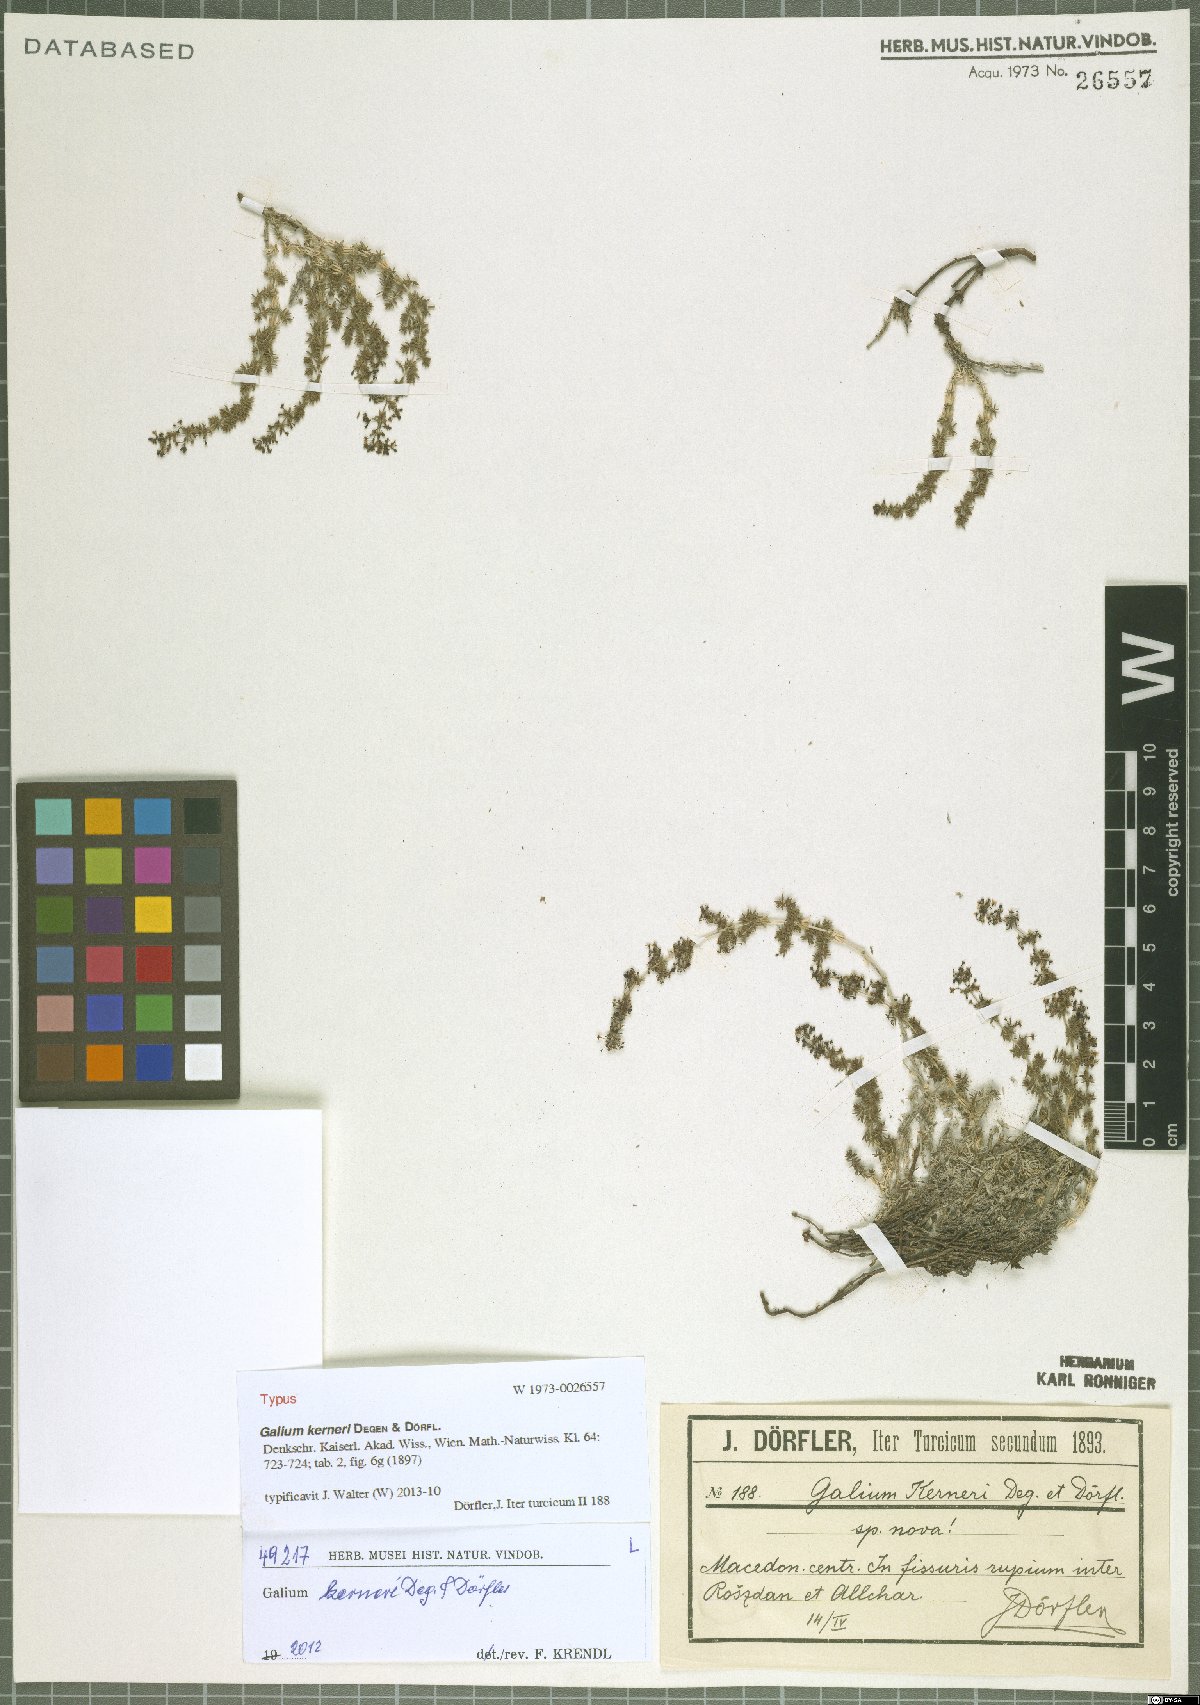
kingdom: Plantae
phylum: Tracheophyta
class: Magnoliopsida
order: Gentianales
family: Rubiaceae
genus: Galium
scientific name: Galium kerneri
